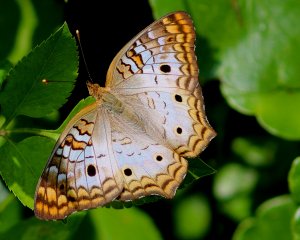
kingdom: Animalia
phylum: Arthropoda
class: Insecta
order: Lepidoptera
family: Nymphalidae
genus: Anartia
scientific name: Anartia jatrophae
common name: White Peacock
